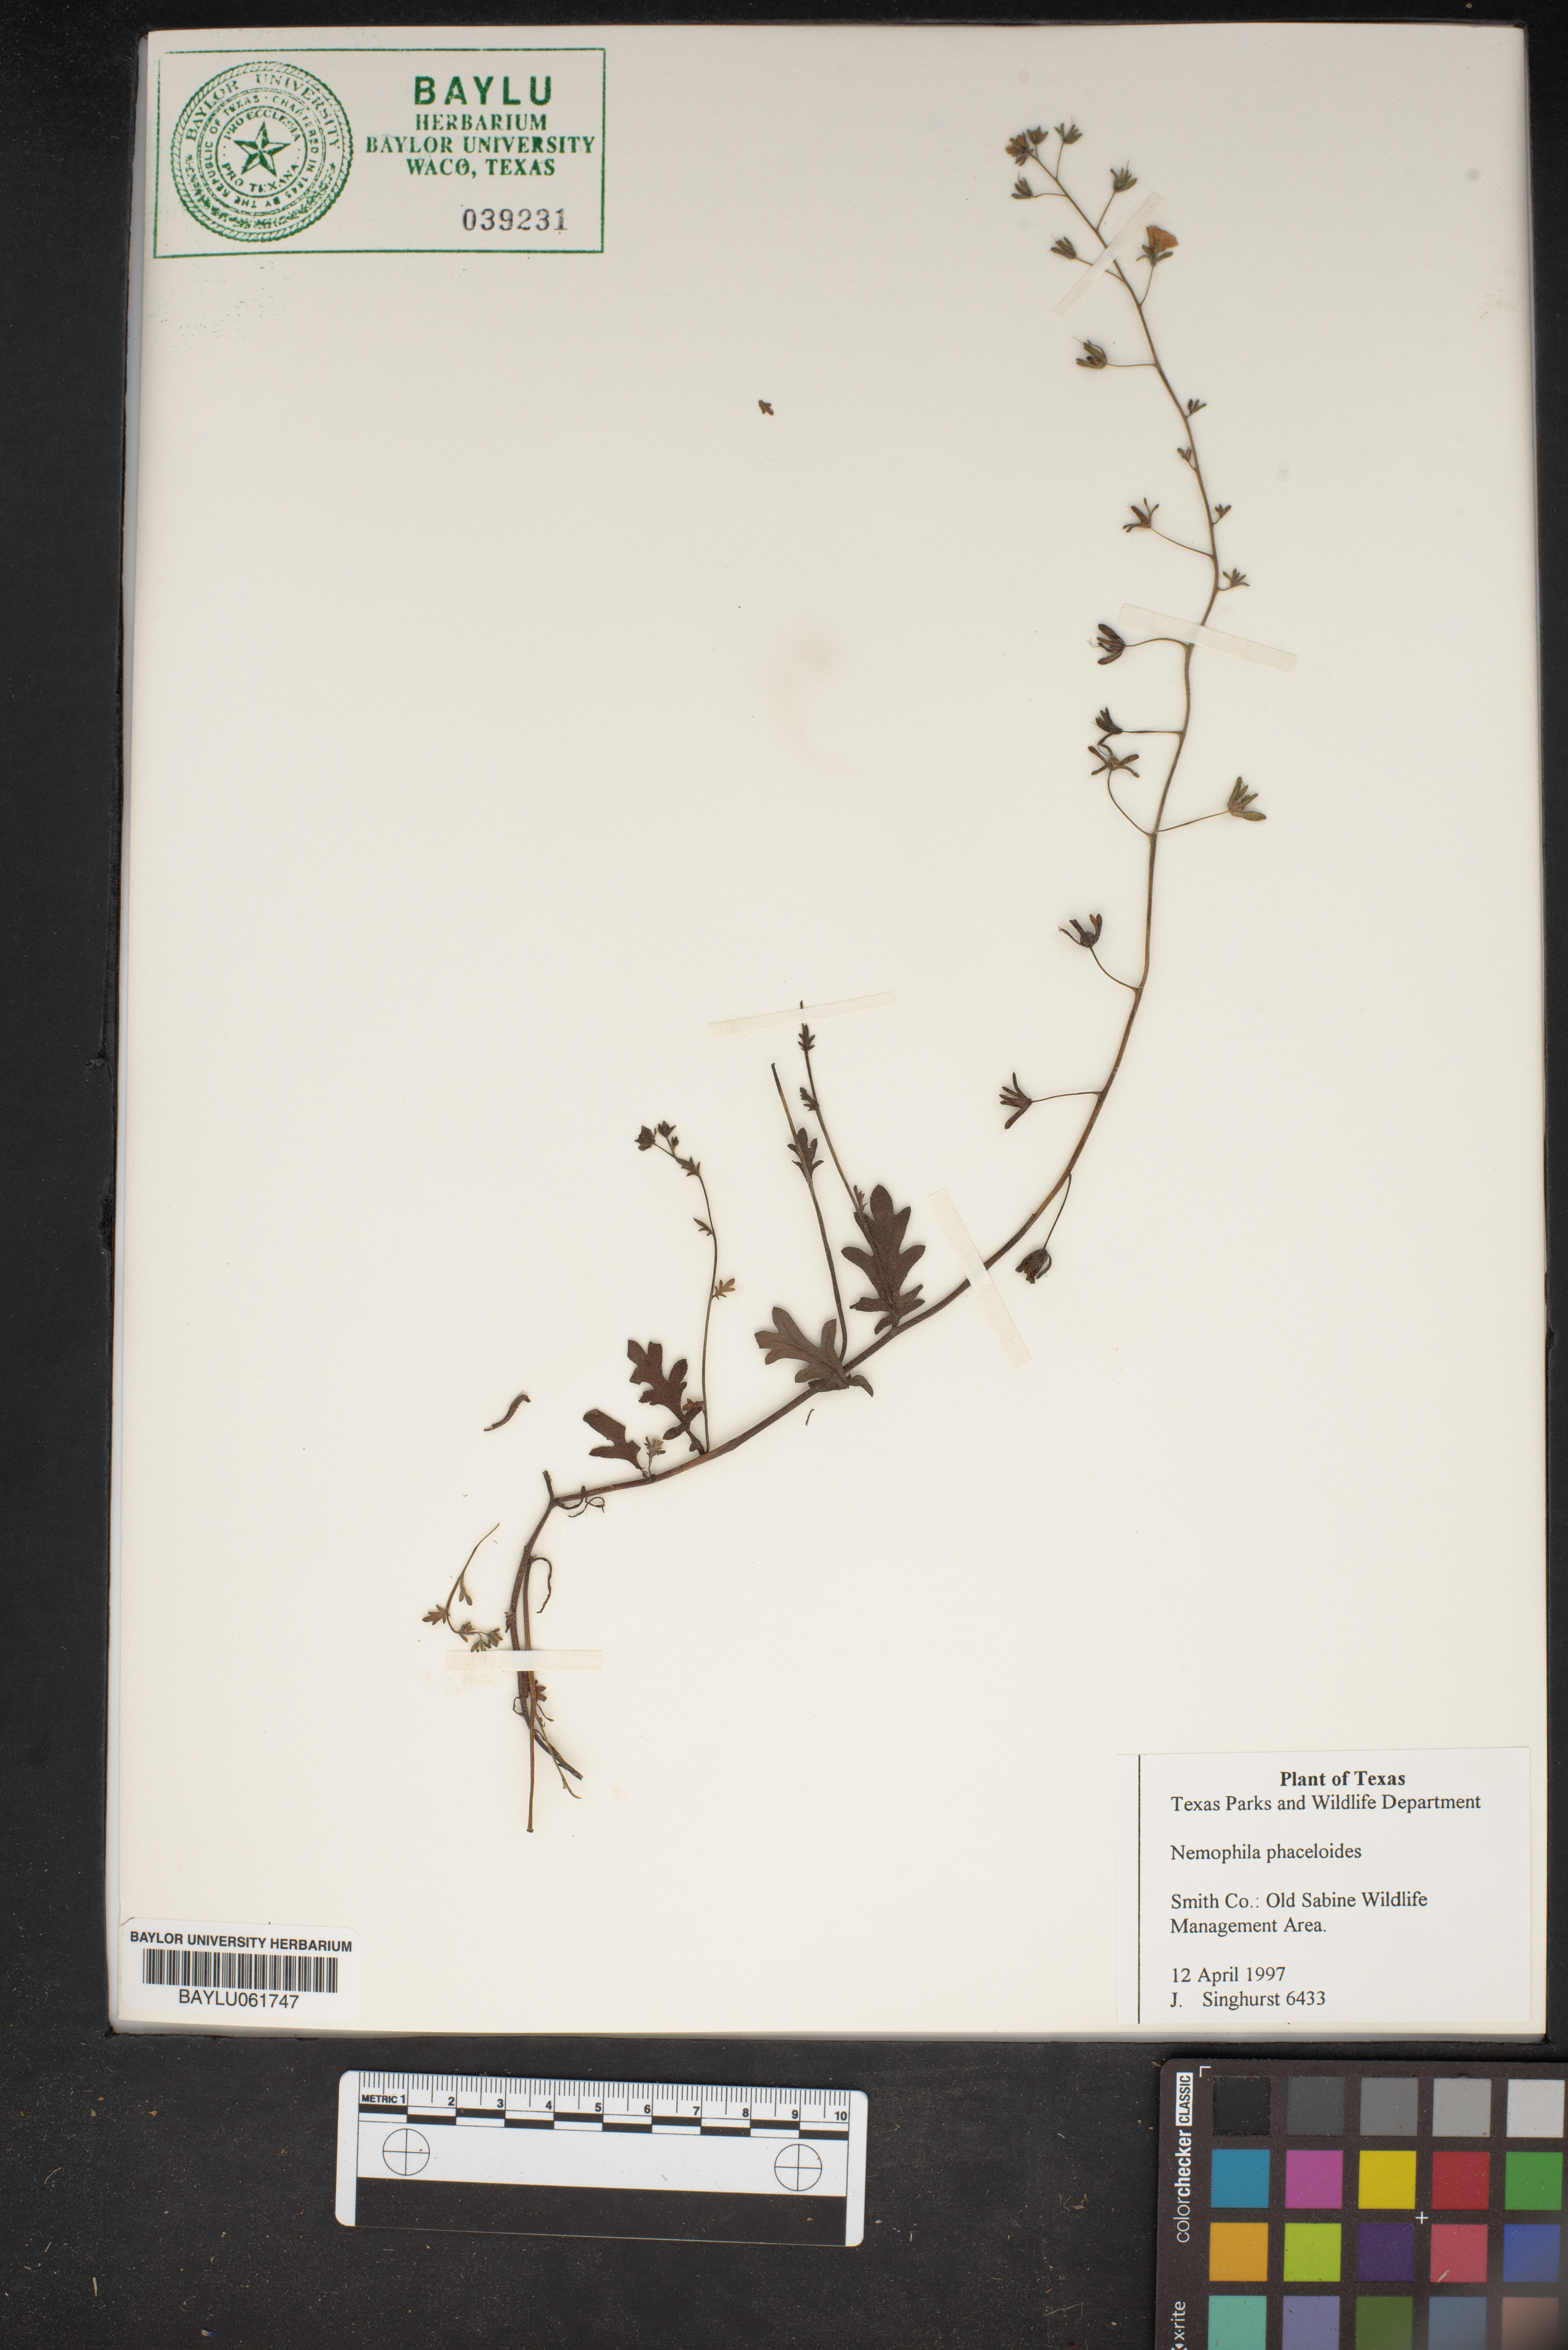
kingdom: Plantae
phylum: Tracheophyta
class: Magnoliopsida
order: Boraginales
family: Hydrophyllaceae
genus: Nemophila
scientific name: Nemophila phacelioides
